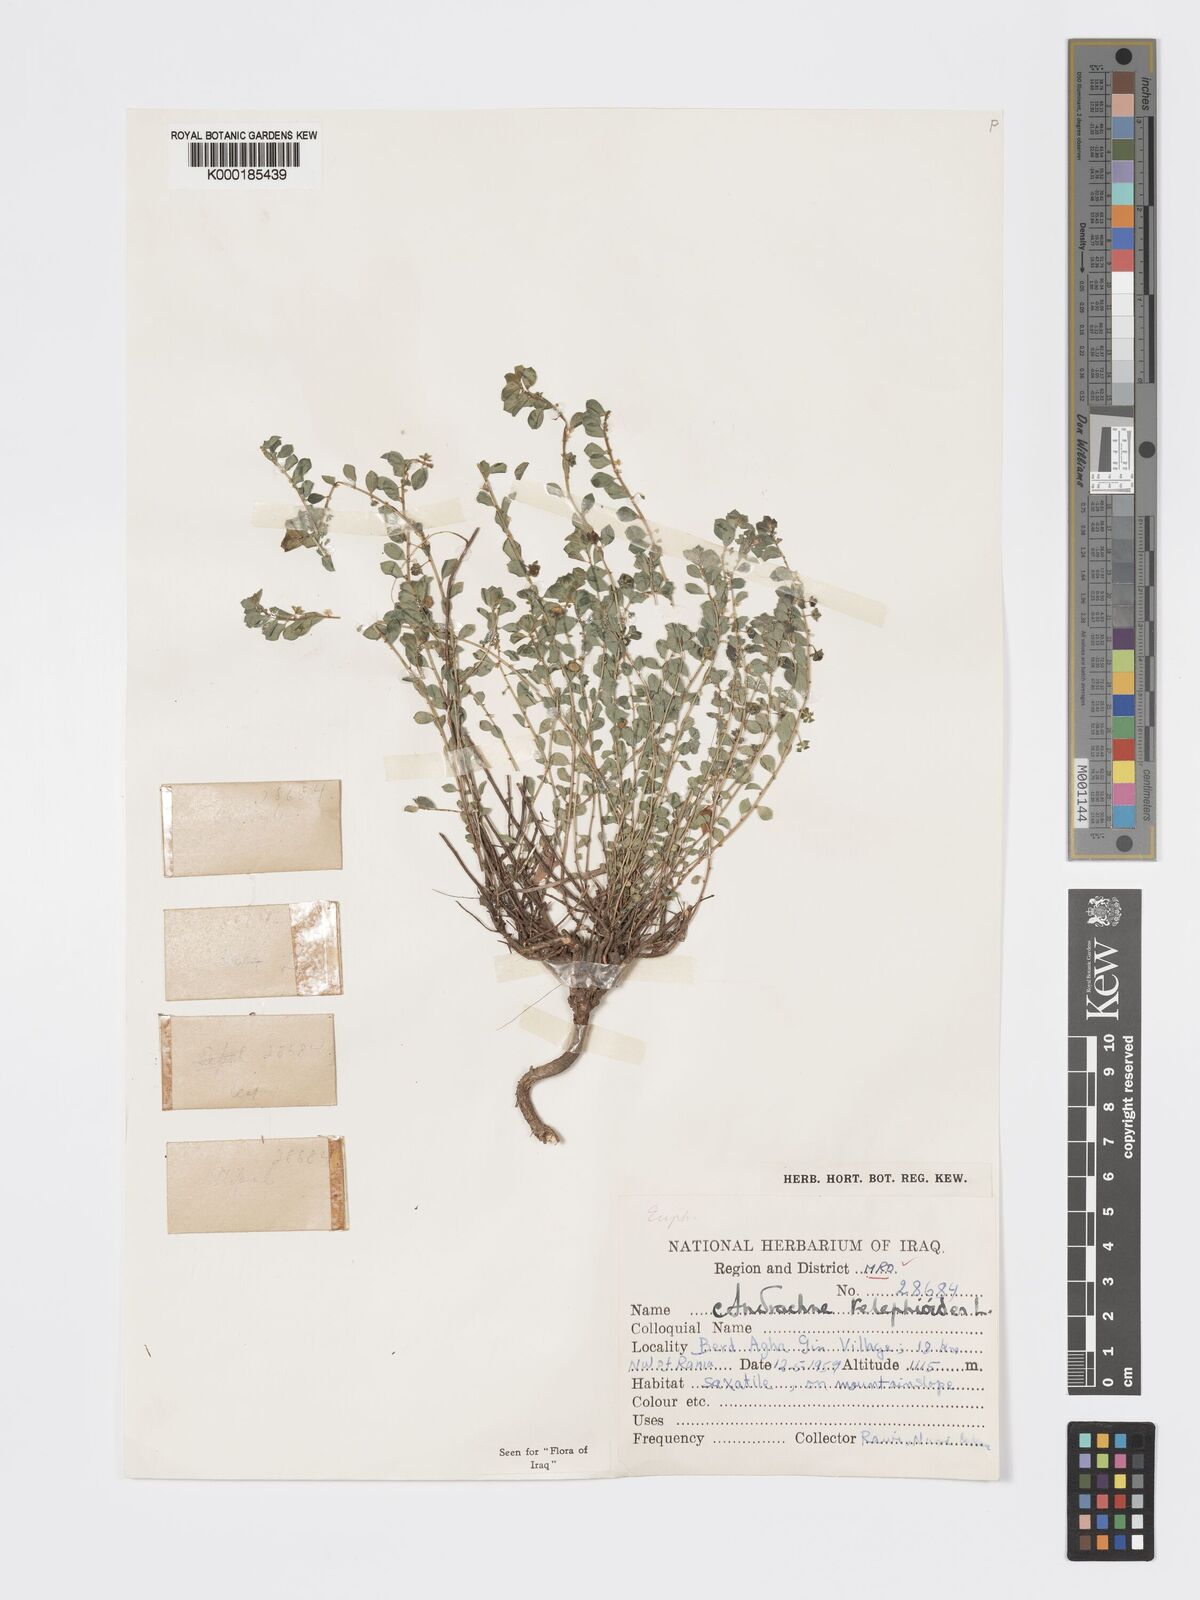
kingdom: Plantae
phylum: Tracheophyta
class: Magnoliopsida
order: Malpighiales
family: Phyllanthaceae
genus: Andrachne
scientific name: Andrachne
